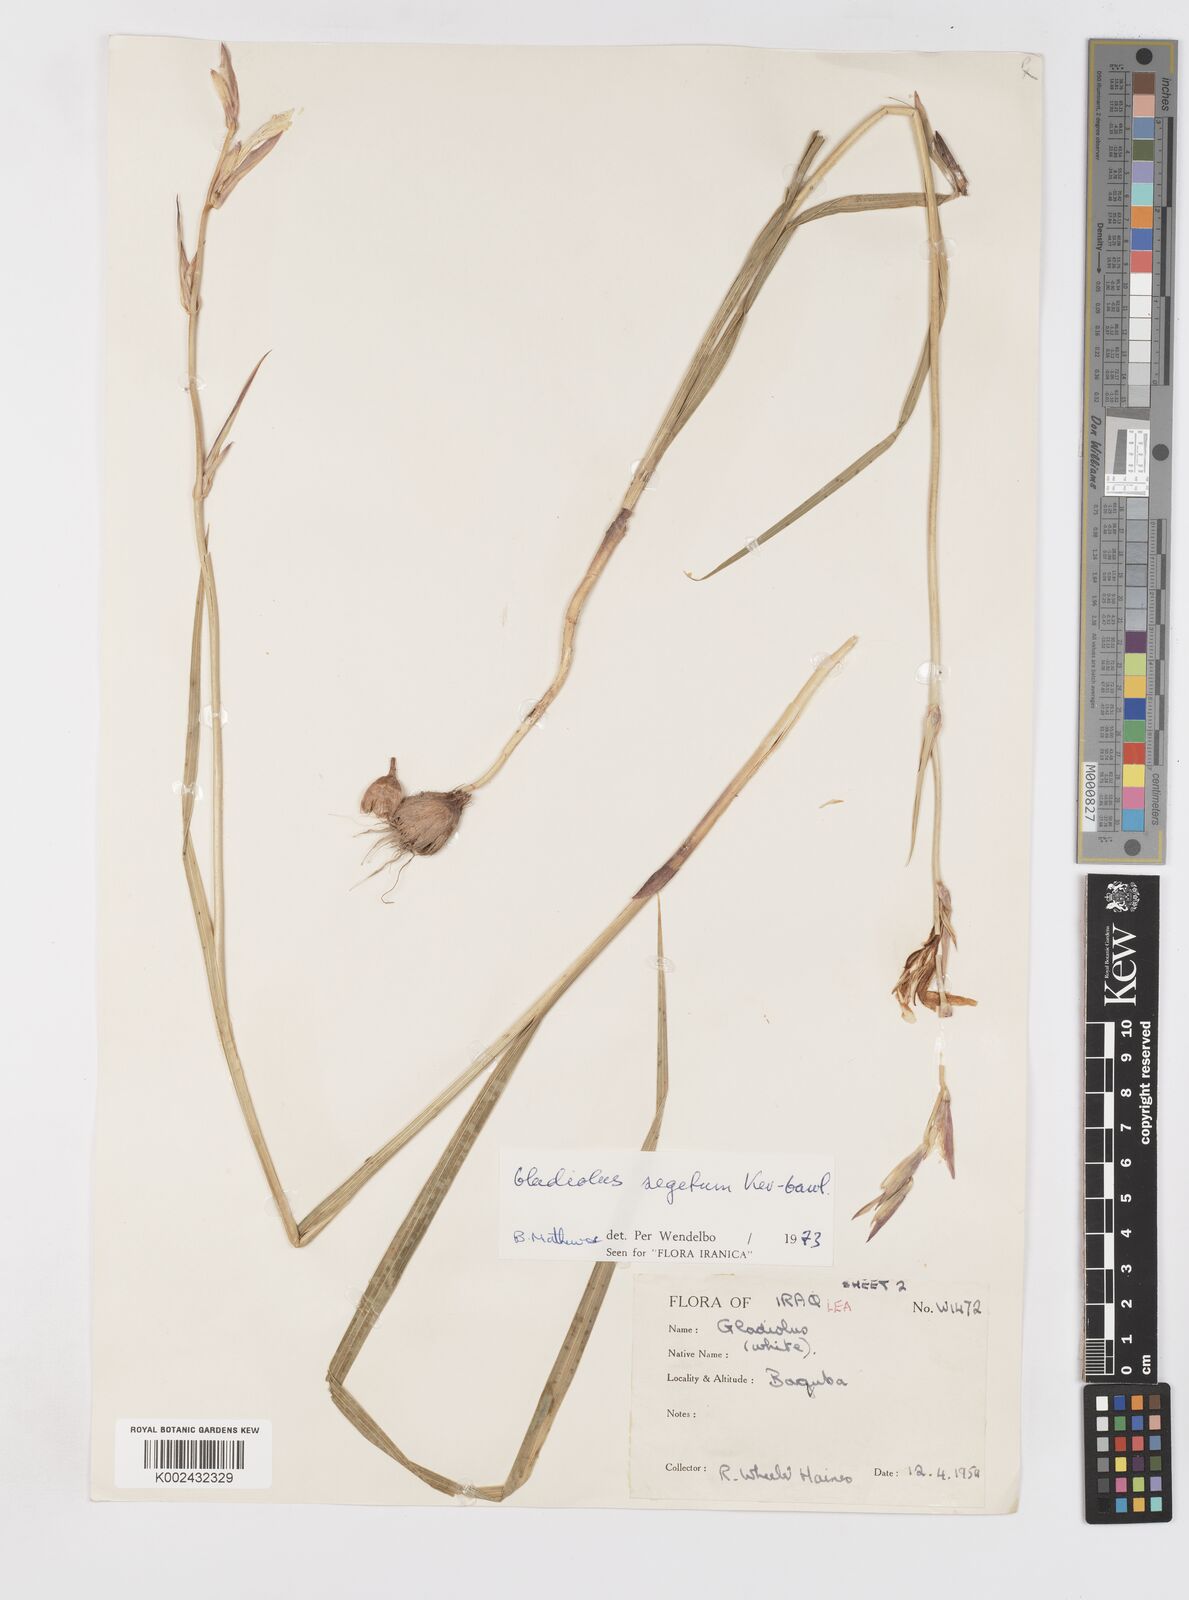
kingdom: Plantae
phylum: Tracheophyta
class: Liliopsida
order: Asparagales
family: Iridaceae
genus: Gladiolus
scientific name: Gladiolus italicus
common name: Field gladiolus
